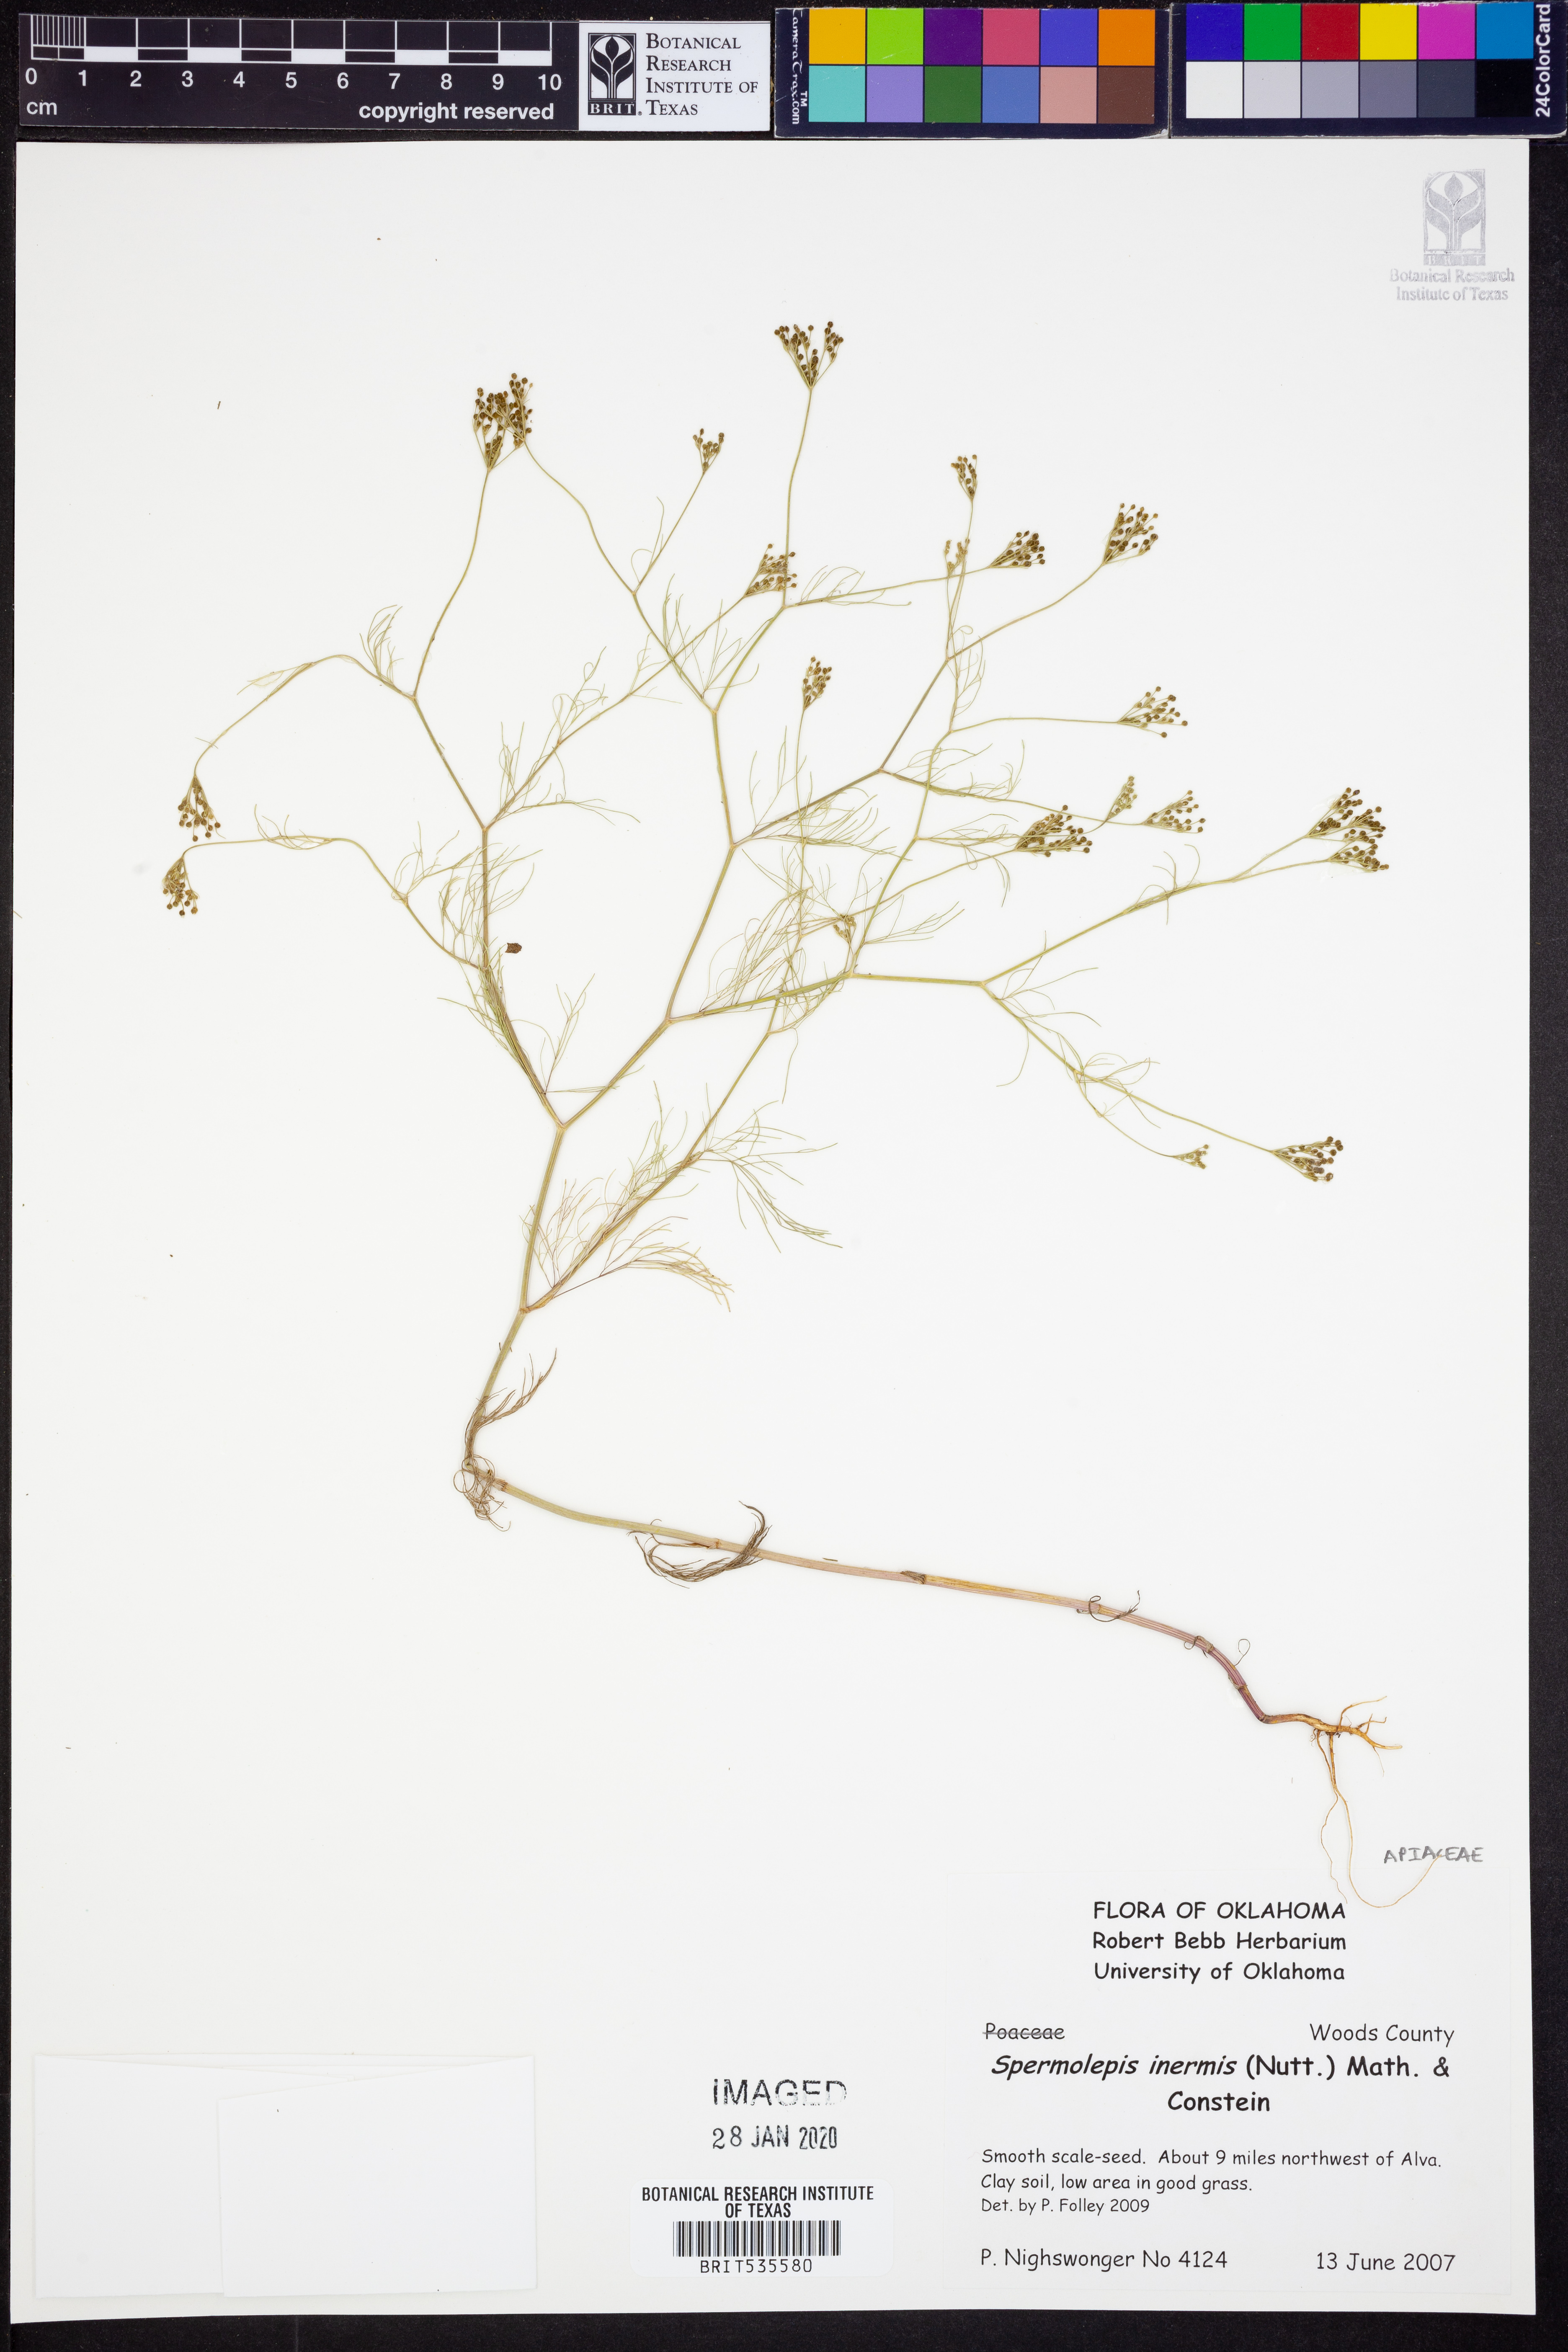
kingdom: Plantae
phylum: Tracheophyta
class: Magnoliopsida
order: Apiales
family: Apiaceae
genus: Spermolepis
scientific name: Spermolepis inermis
